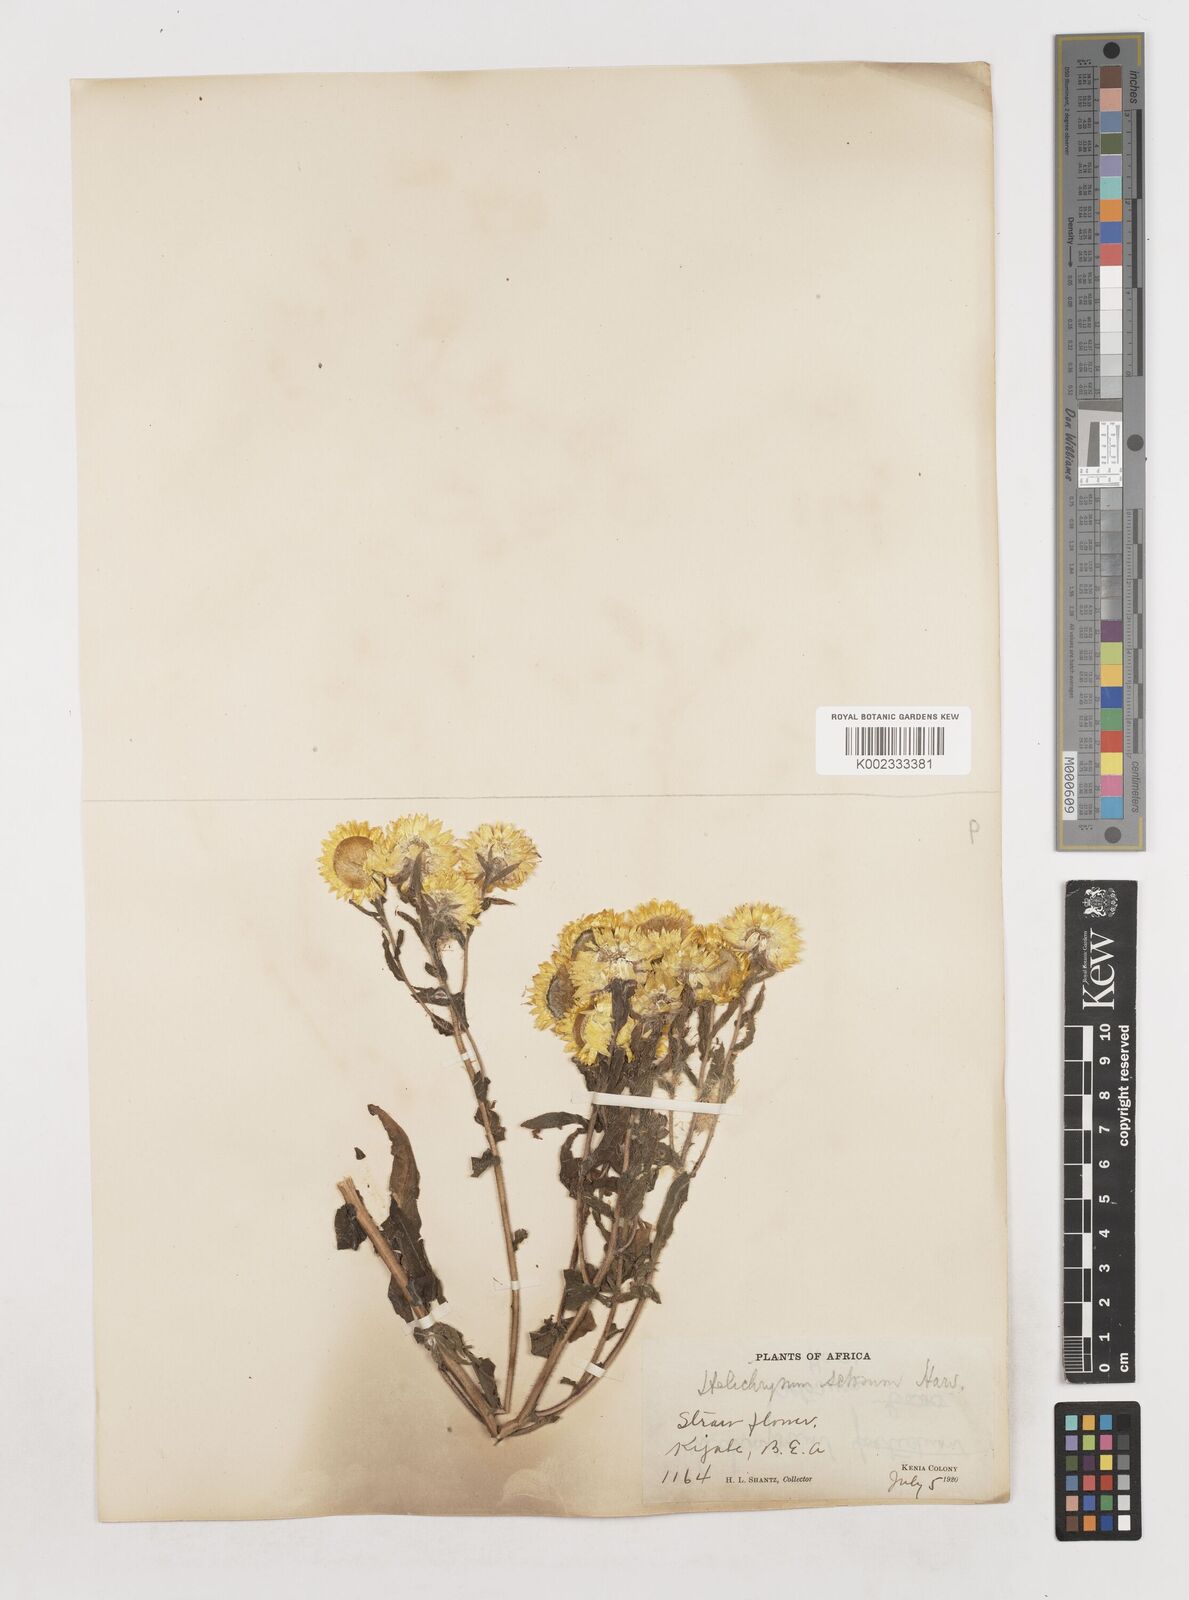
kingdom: Plantae
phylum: Tracheophyta
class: Magnoliopsida
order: Asterales
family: Asteraceae
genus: Helichrysum
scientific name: Helichrysum setosum
